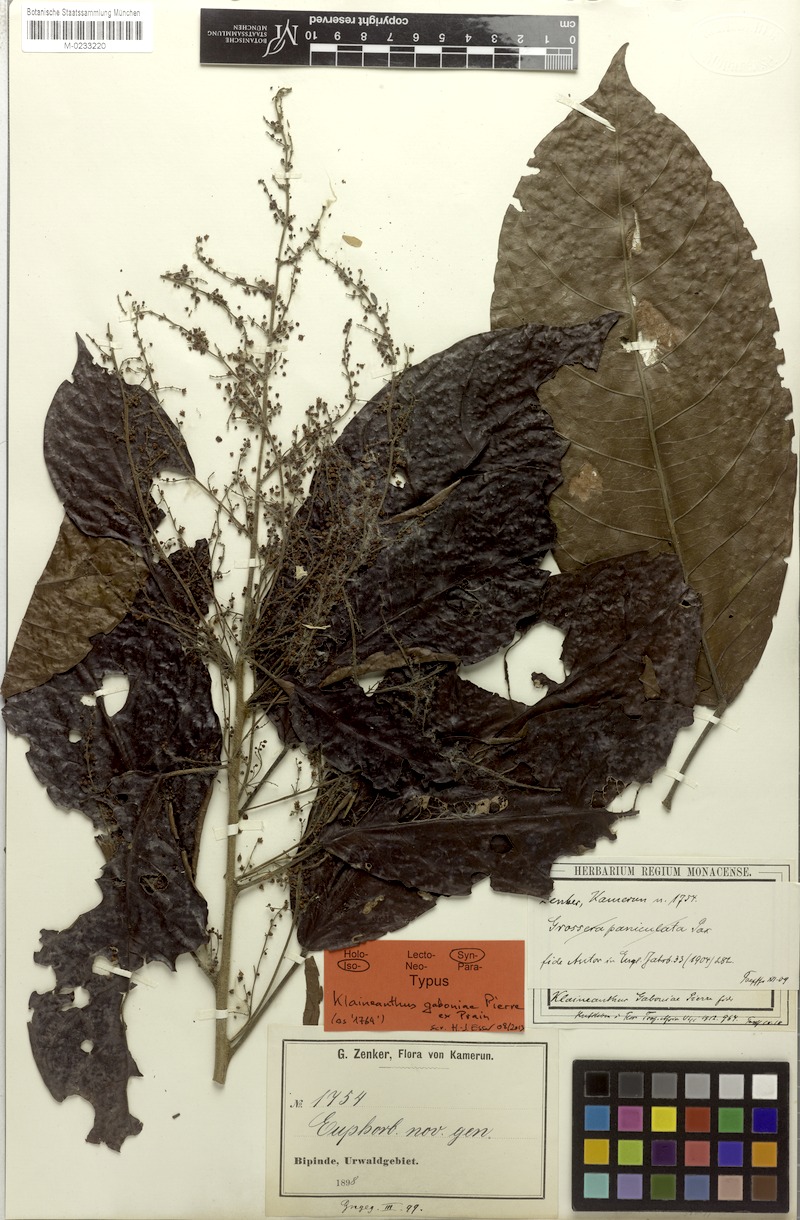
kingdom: Plantae
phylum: Tracheophyta
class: Magnoliopsida
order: Malpighiales
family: Euphorbiaceae
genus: Klaineanthus
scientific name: Klaineanthus gaboniae
